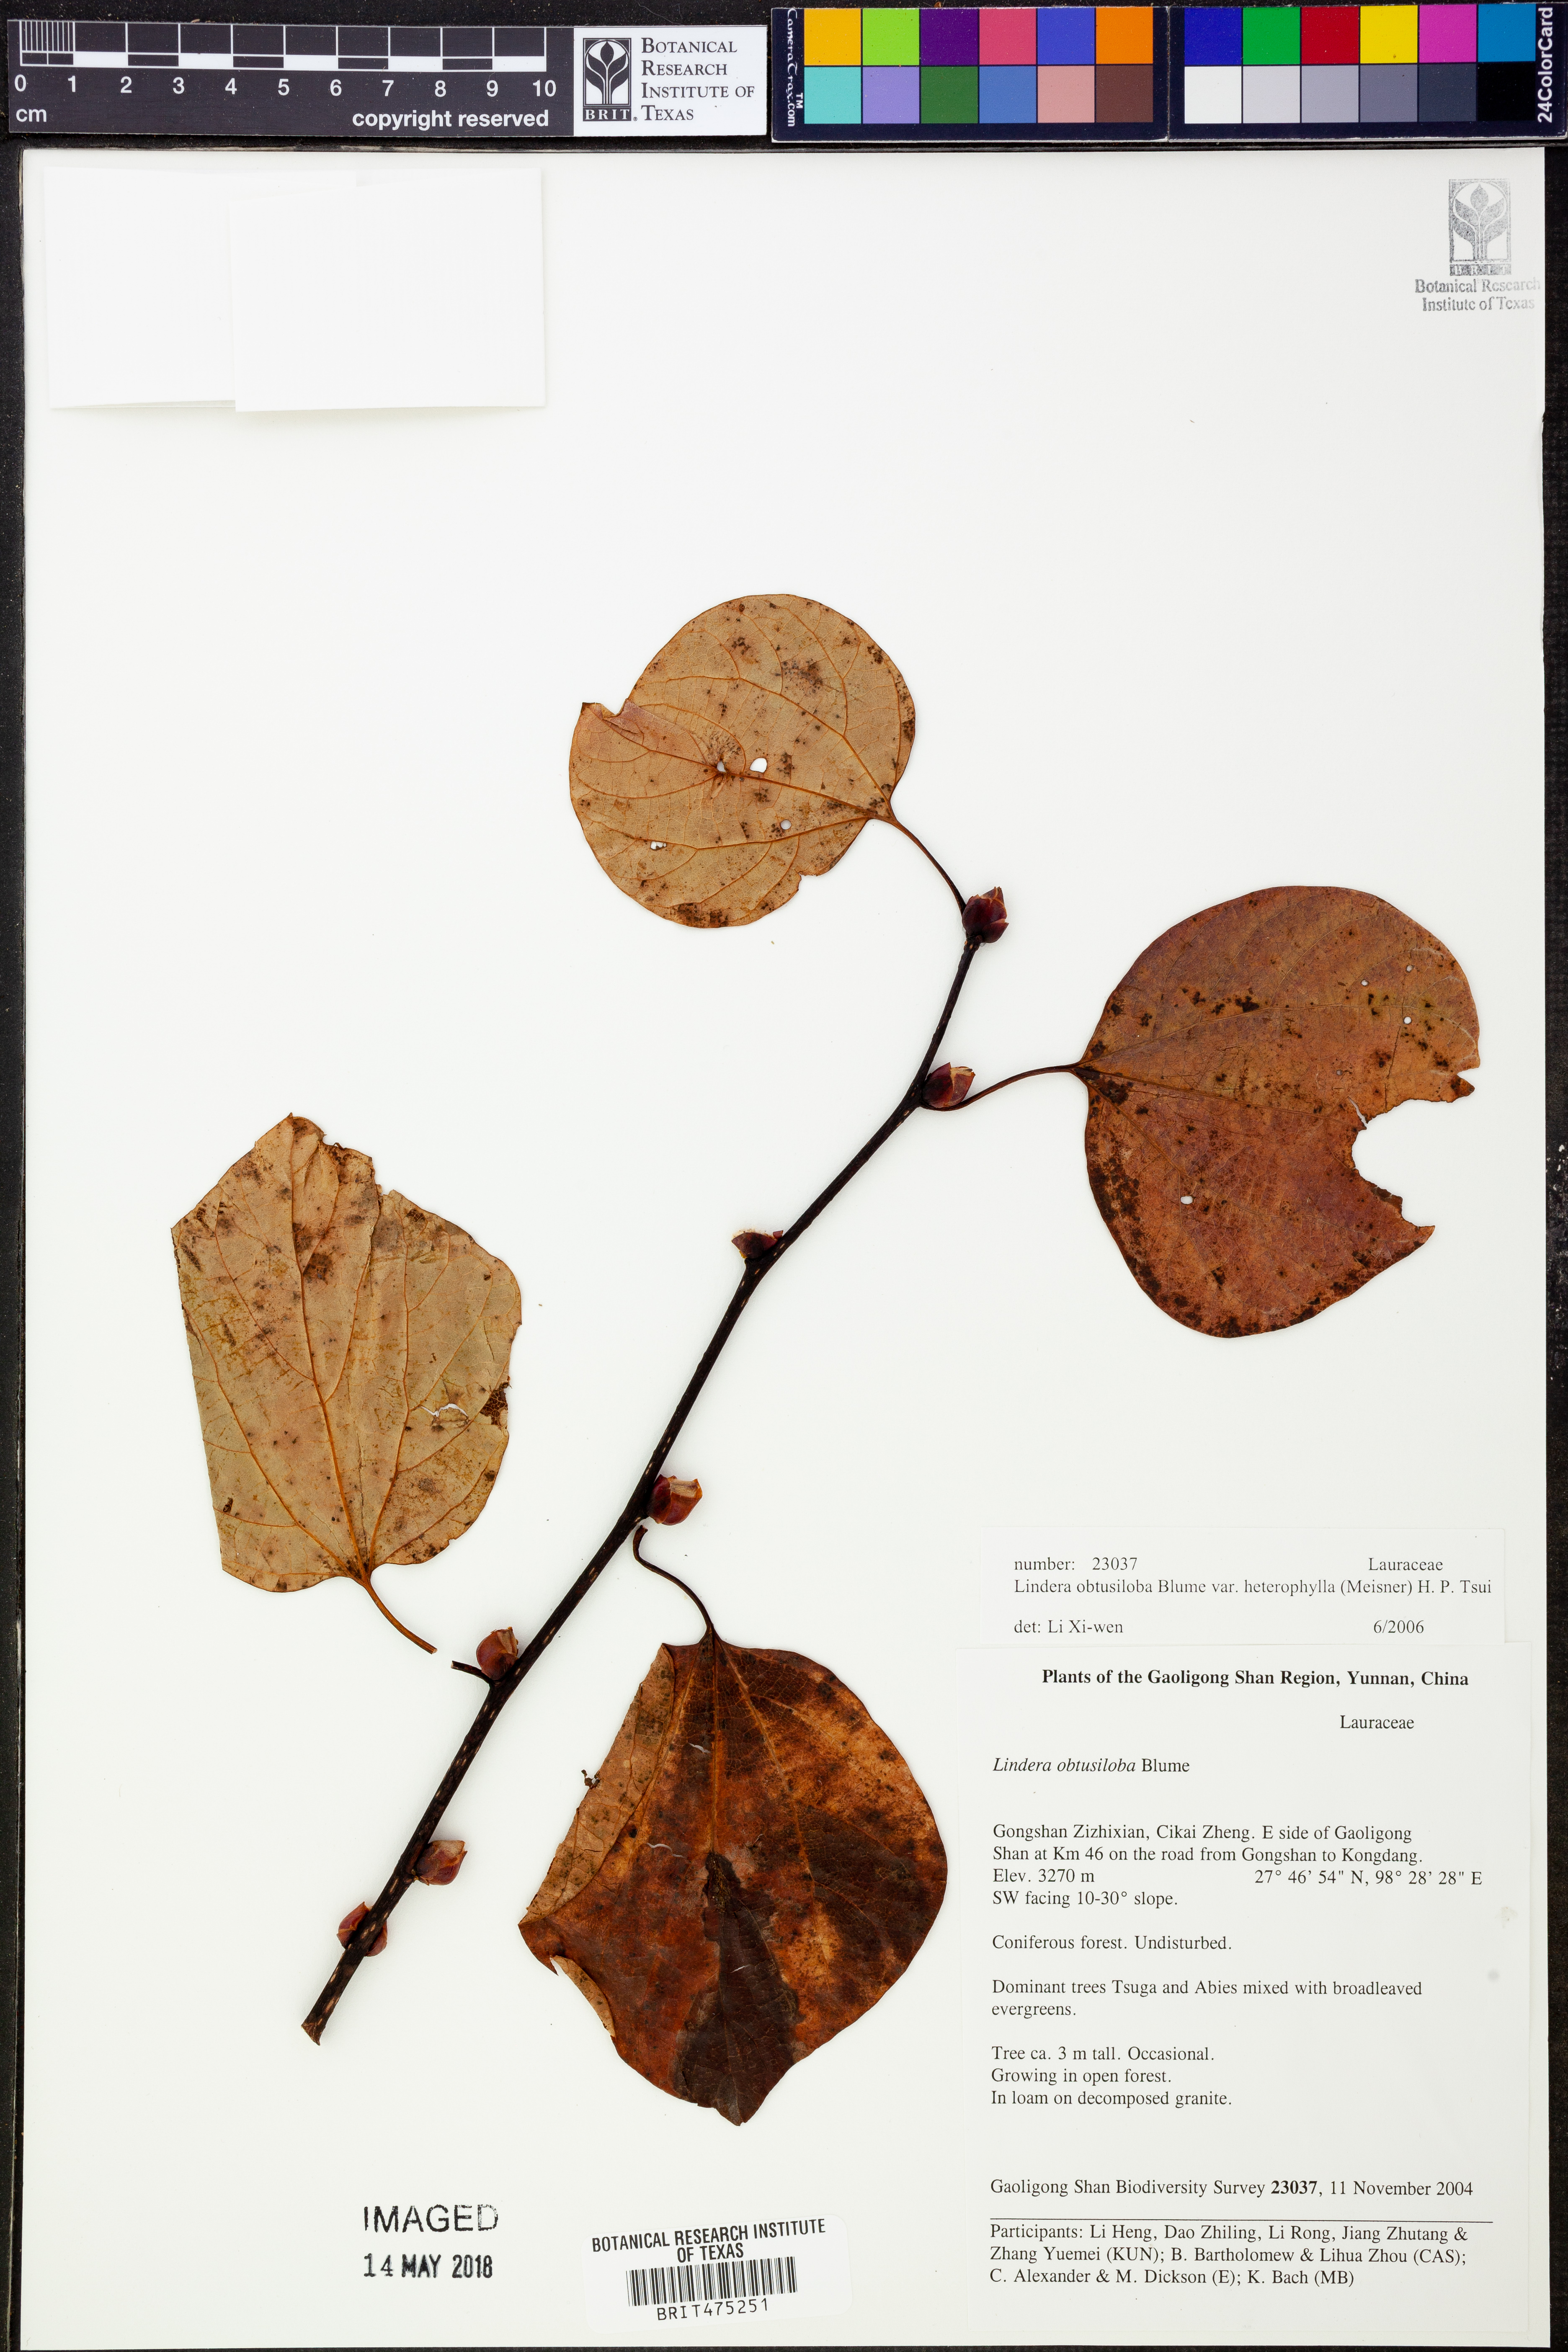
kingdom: Plantae
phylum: Tracheophyta
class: Magnoliopsida
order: Laurales
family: Lauraceae
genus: Lindera
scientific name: Lindera obtusiloba
